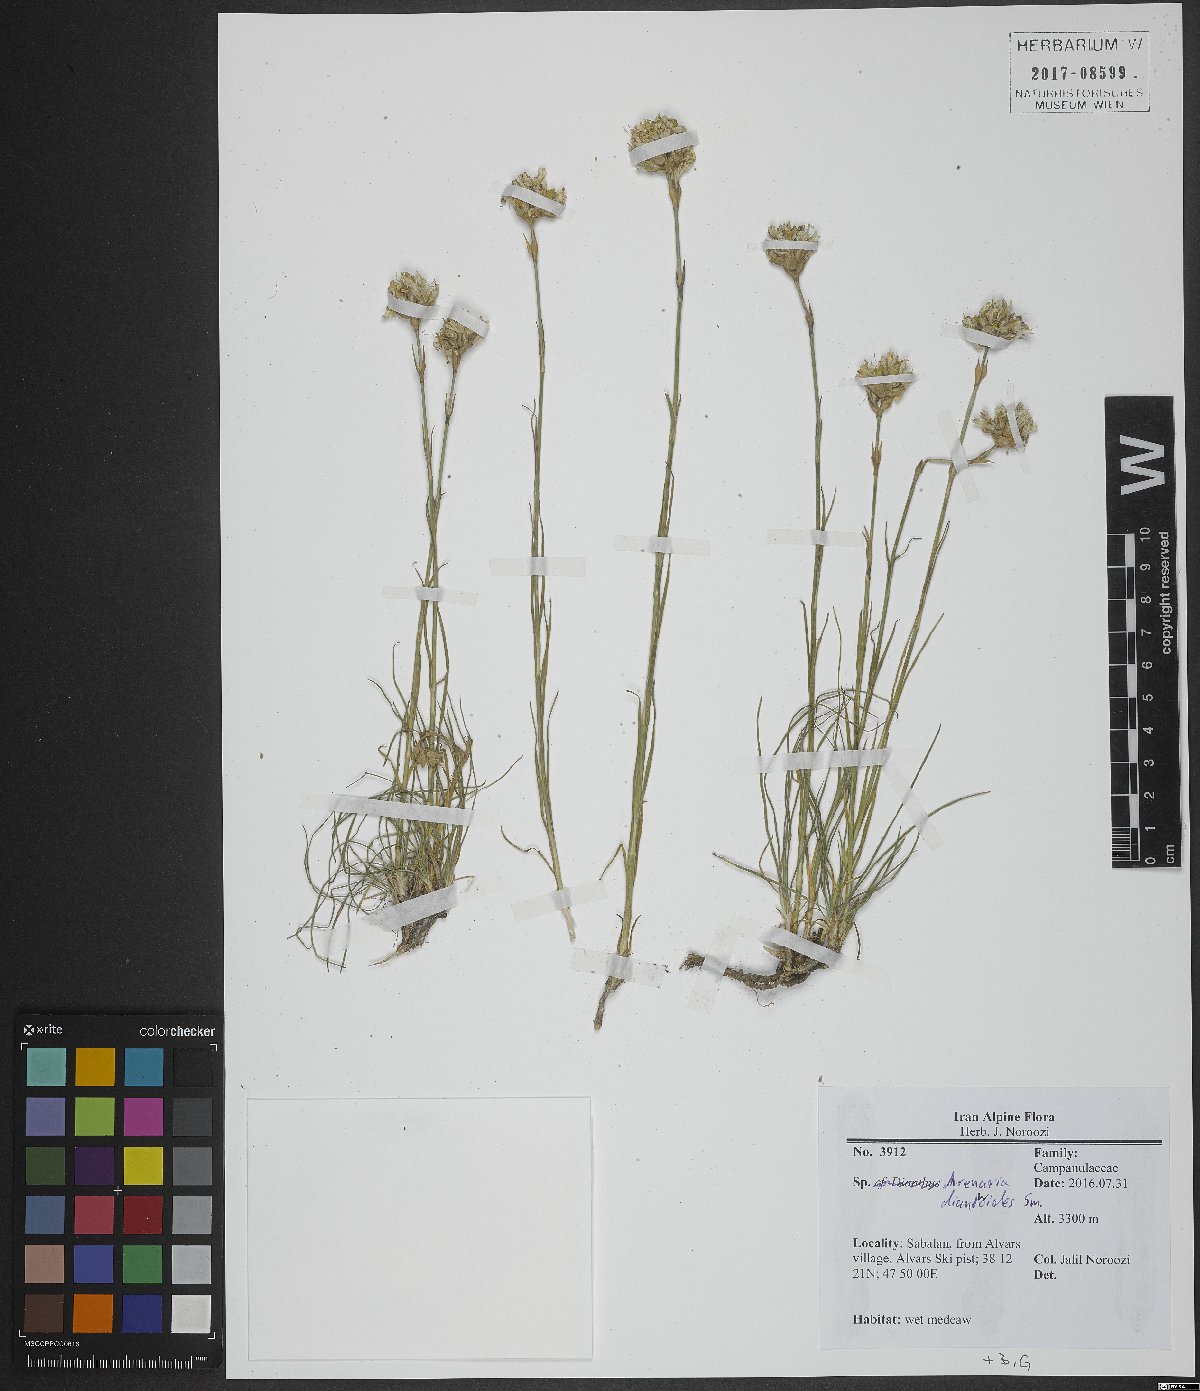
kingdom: Plantae
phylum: Tracheophyta
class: Magnoliopsida
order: Caryophyllales
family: Caryophyllaceae
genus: Eremogone
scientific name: Eremogone dianthoides
